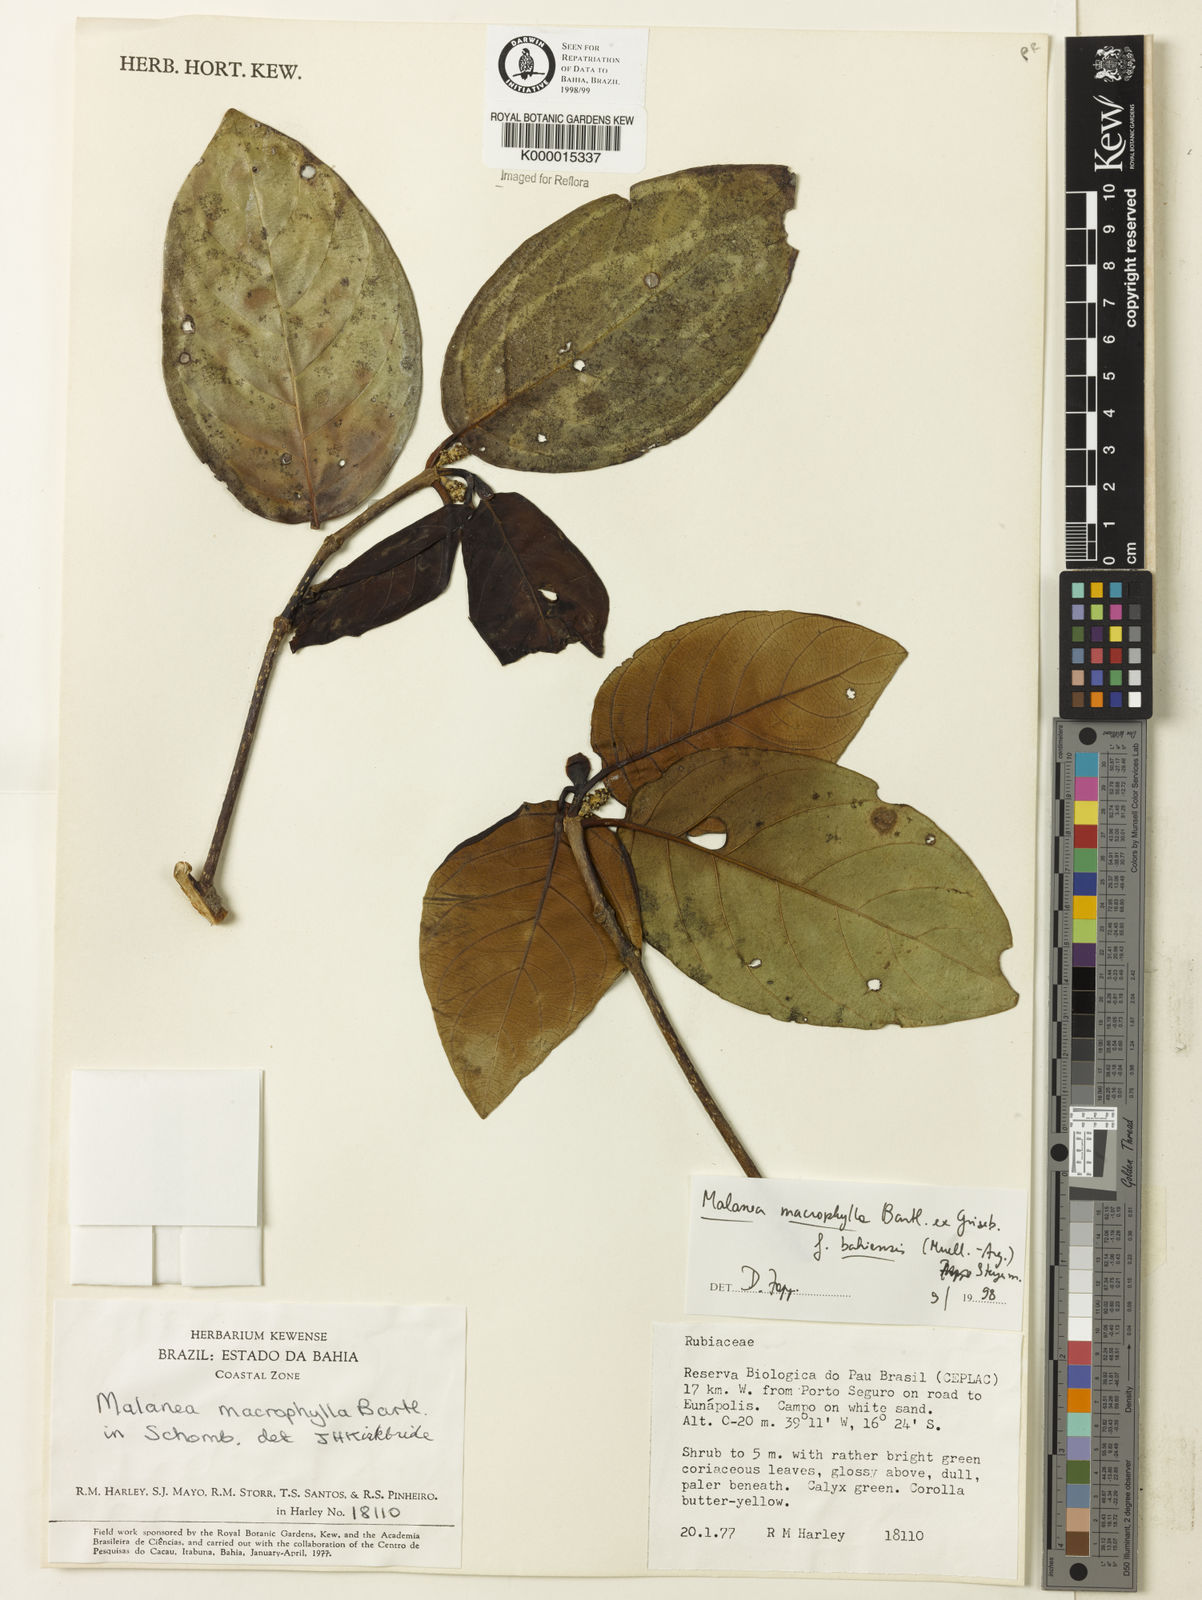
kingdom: Plantae
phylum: Tracheophyta
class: Magnoliopsida
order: Gentianales
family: Rubiaceae
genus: Malanea
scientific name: Malanea glabra
